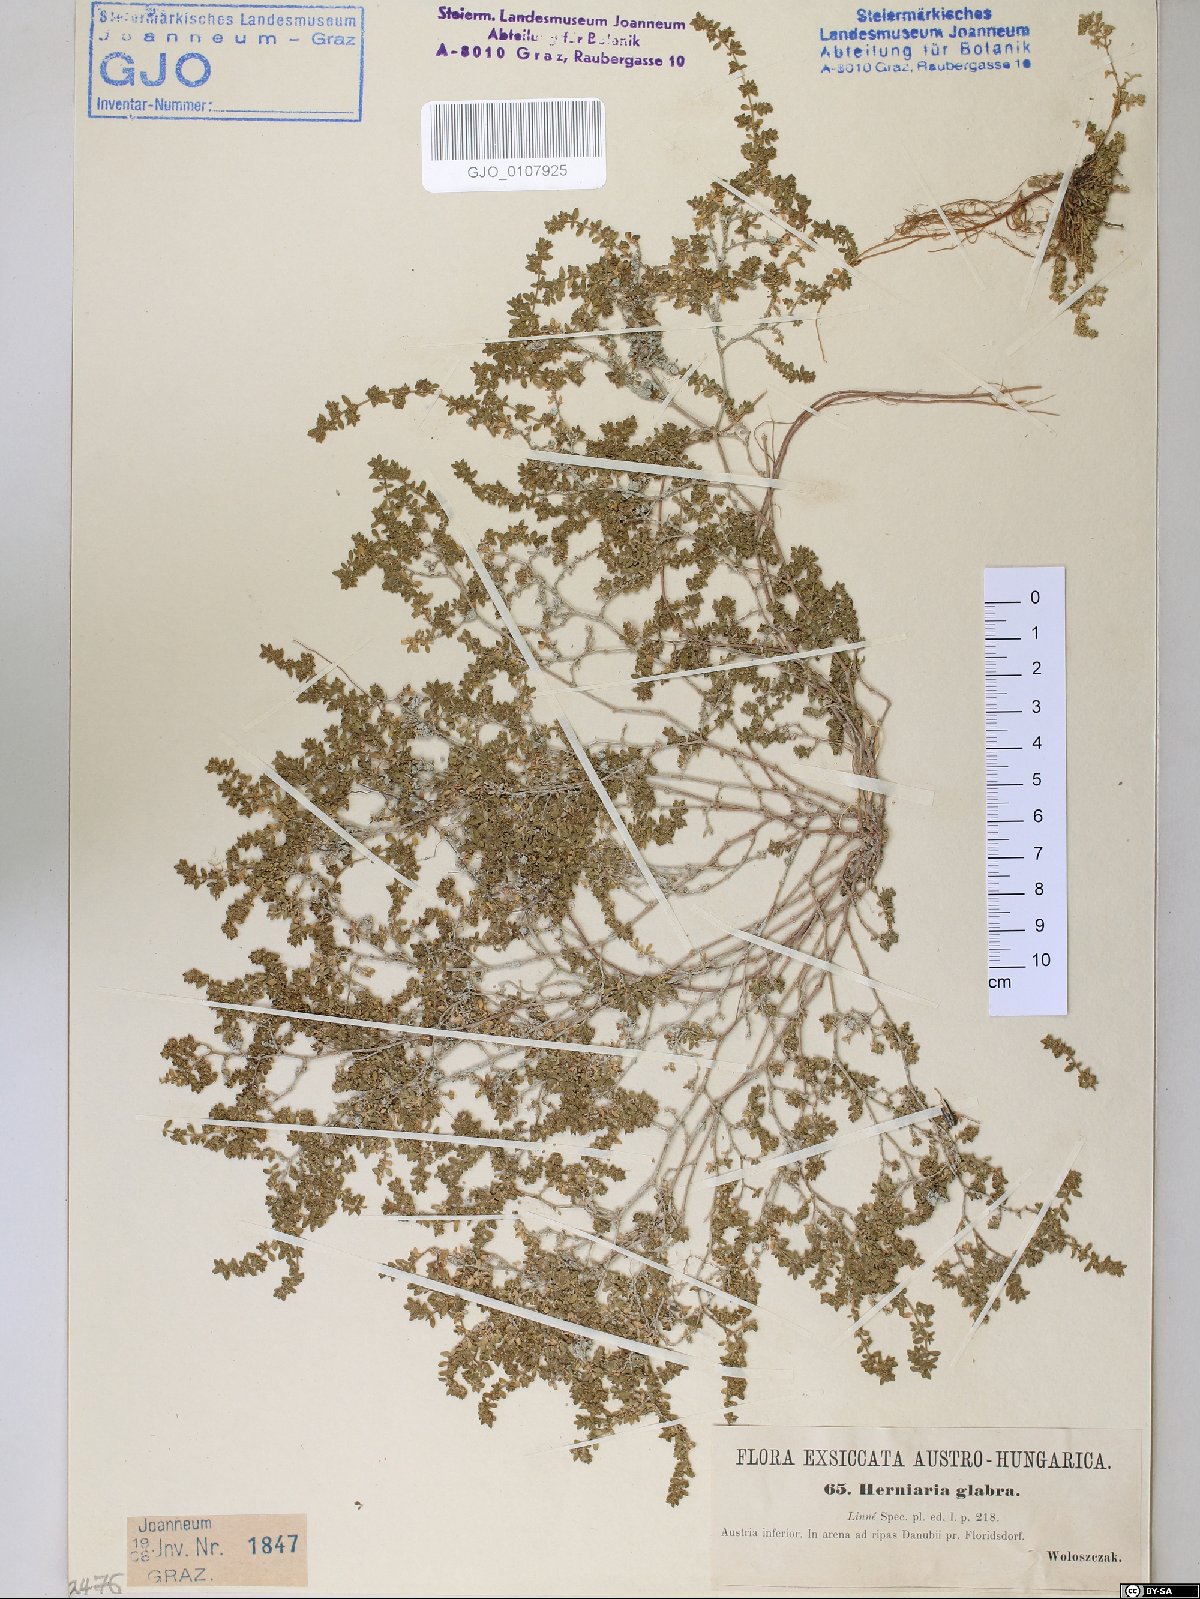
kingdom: Plantae
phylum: Tracheophyta
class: Magnoliopsida
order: Caryophyllales
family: Caryophyllaceae
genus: Herniaria
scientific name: Herniaria glabra
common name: Smooth rupturewort
